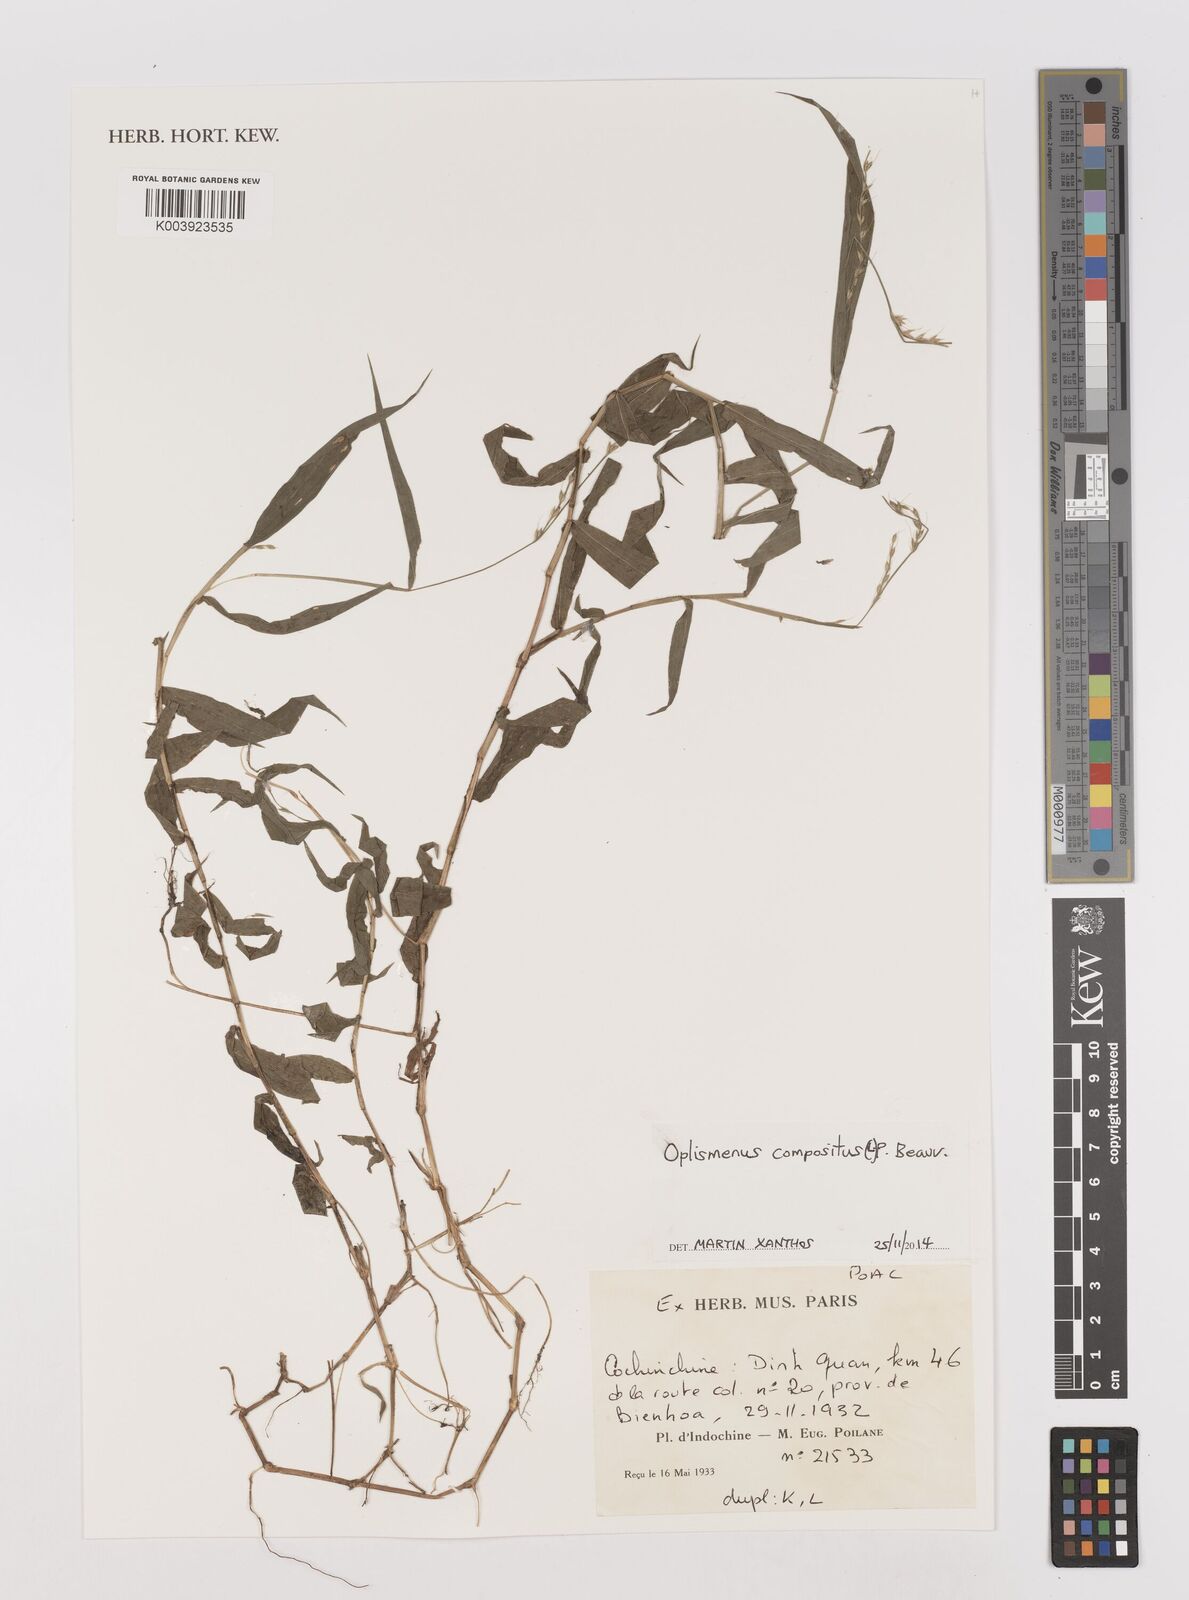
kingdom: Plantae
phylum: Tracheophyta
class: Liliopsida
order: Poales
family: Poaceae
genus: Oplismenus
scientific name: Oplismenus compositus
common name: Running mountain grass
